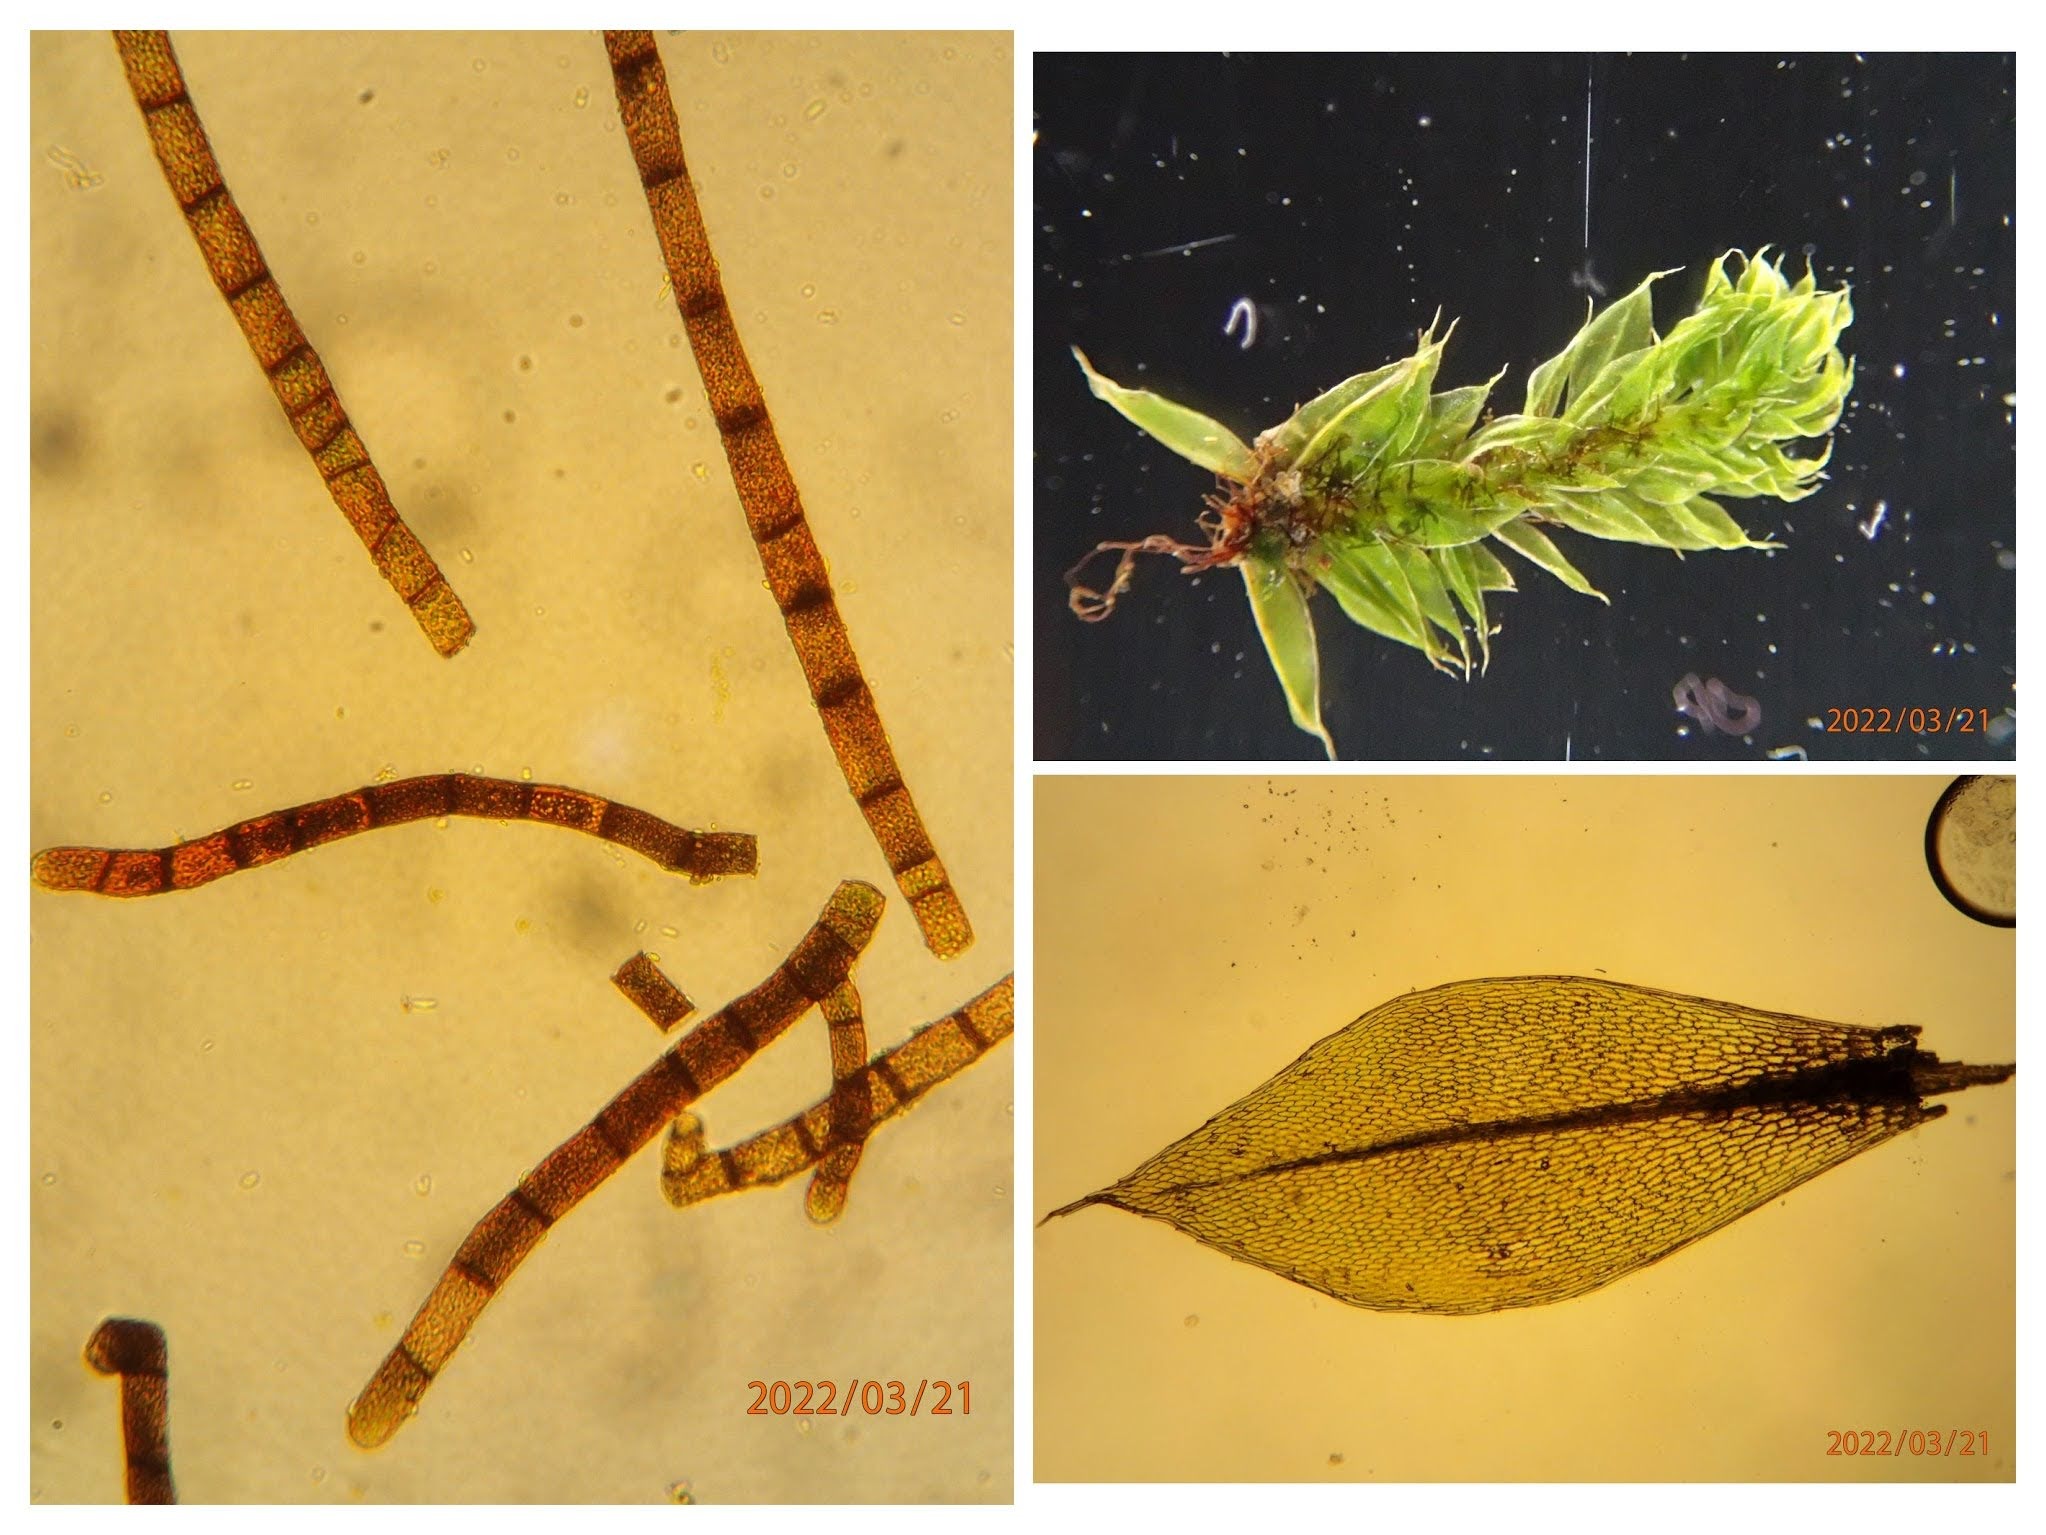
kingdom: Plantae
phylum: Bryophyta
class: Bryopsida
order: Bryales
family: Bryaceae
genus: Rosulabryum
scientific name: Rosulabryum moravicum
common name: Bark-bryum
